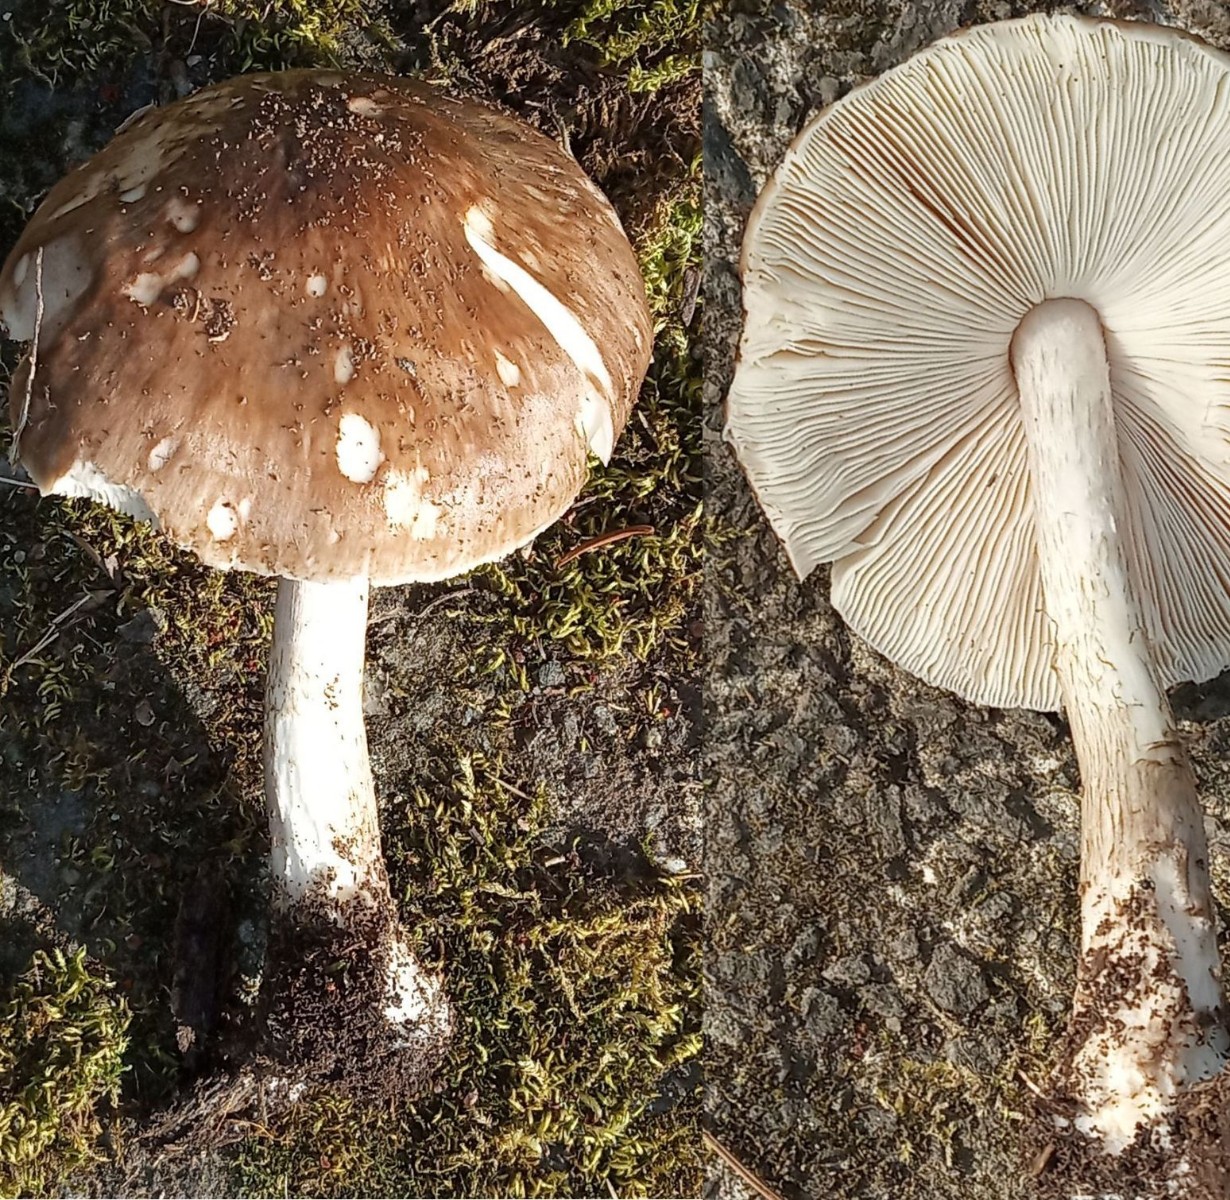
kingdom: Fungi
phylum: Basidiomycota
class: Agaricomycetes
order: Agaricales
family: Pluteaceae
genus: Pluteus
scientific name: Pluteus cervinus
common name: sodfarvet skærmhat
